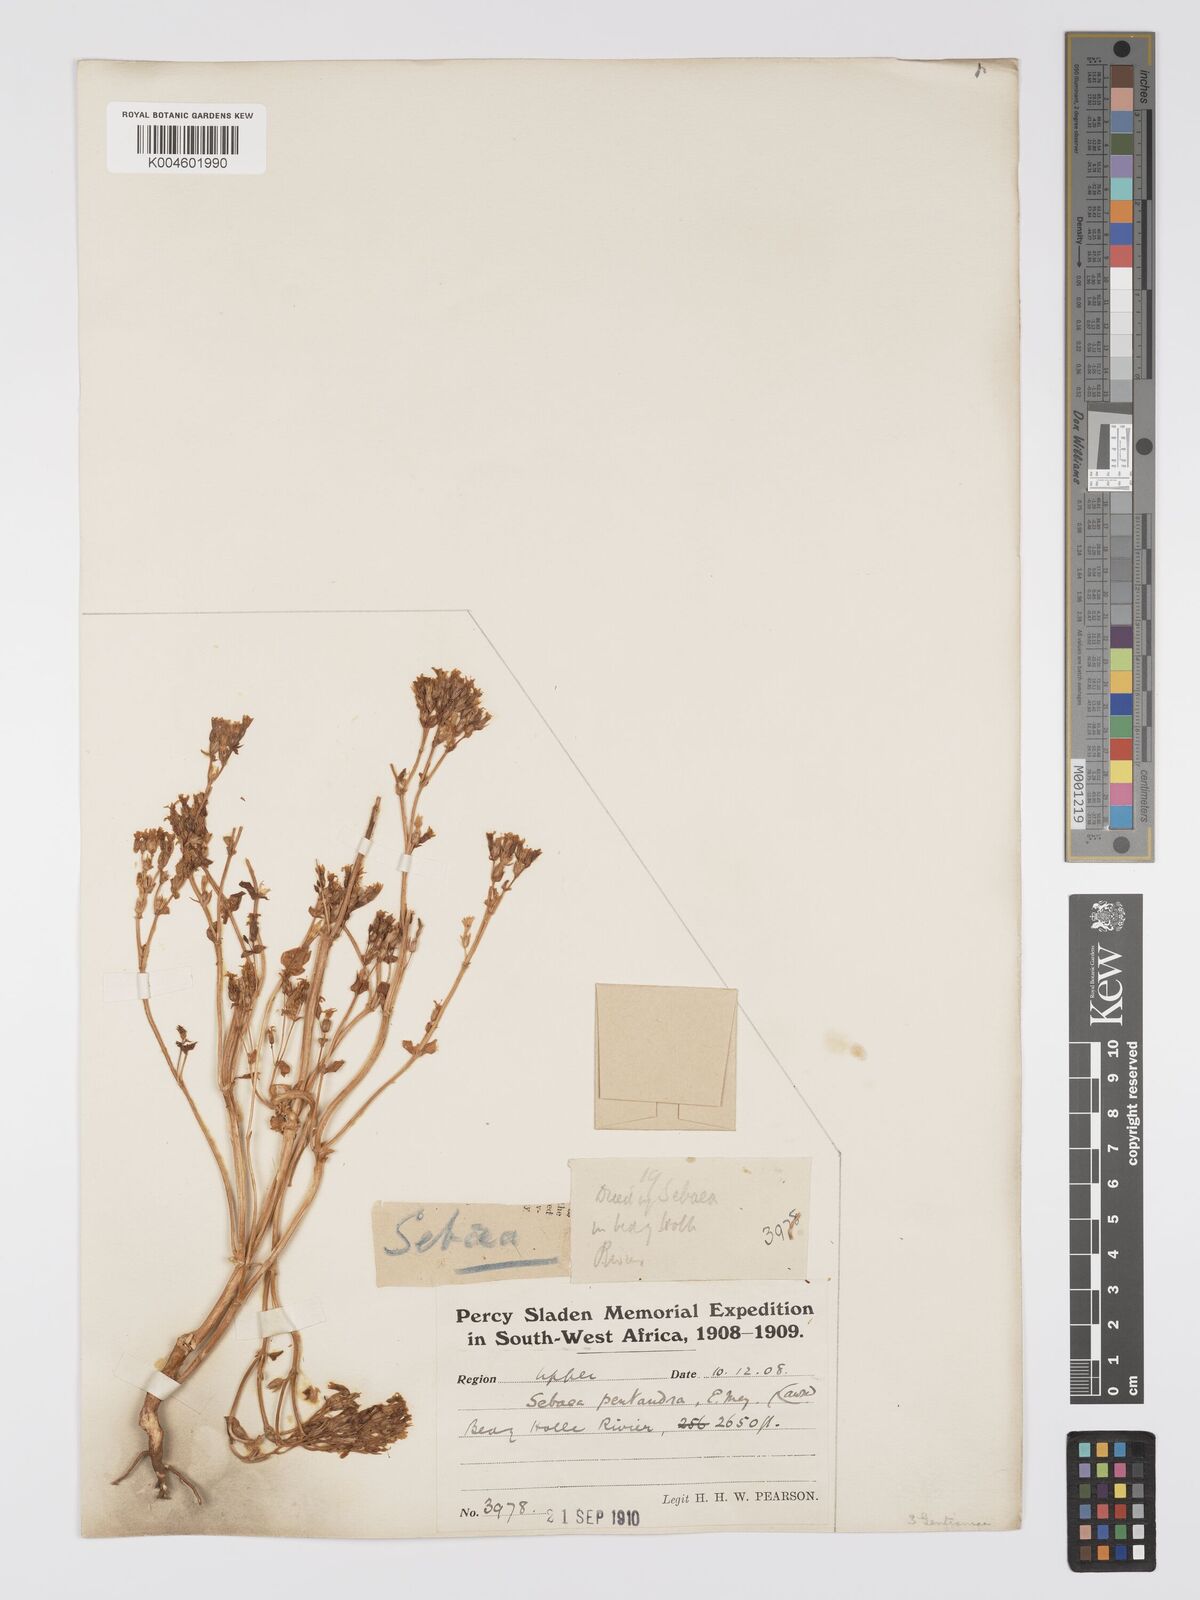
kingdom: Plantae
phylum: Tracheophyta
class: Magnoliopsida
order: Gentianales
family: Gentianaceae
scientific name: Gentianaceae
